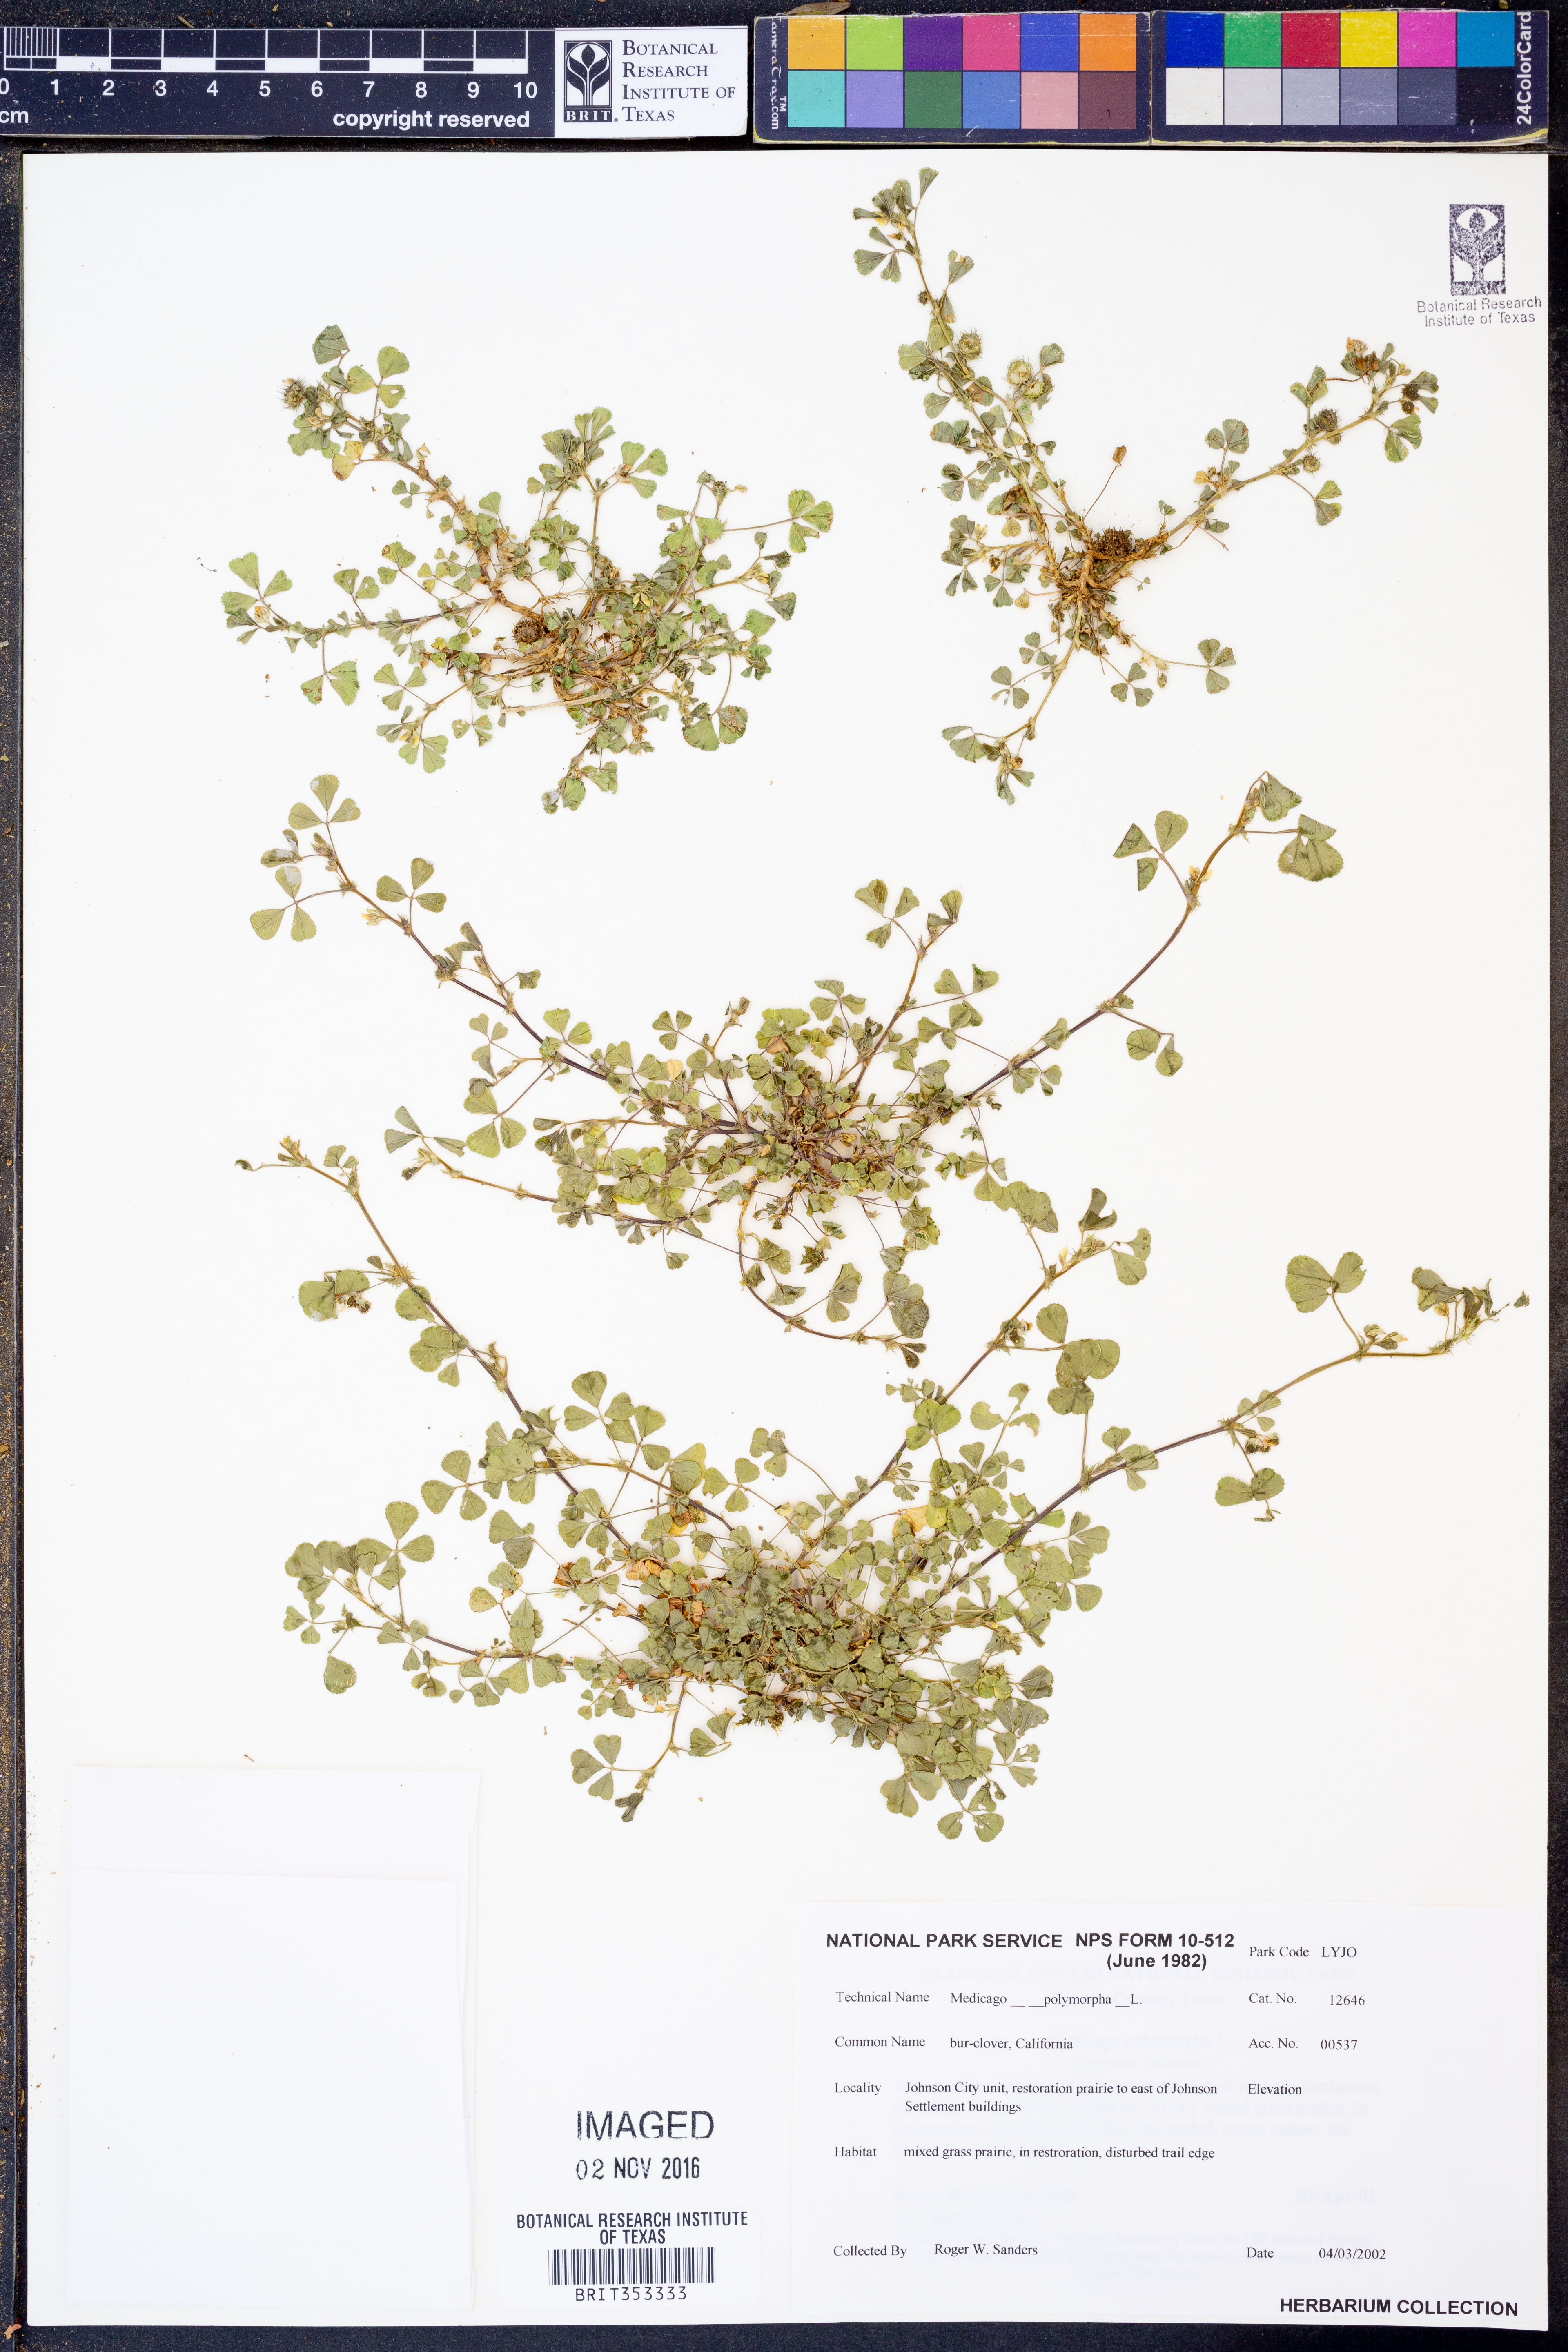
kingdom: Plantae
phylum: Tracheophyta
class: Magnoliopsida
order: Fabales
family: Fabaceae
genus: Medicago
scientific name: Medicago polymorpha
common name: Burclover
